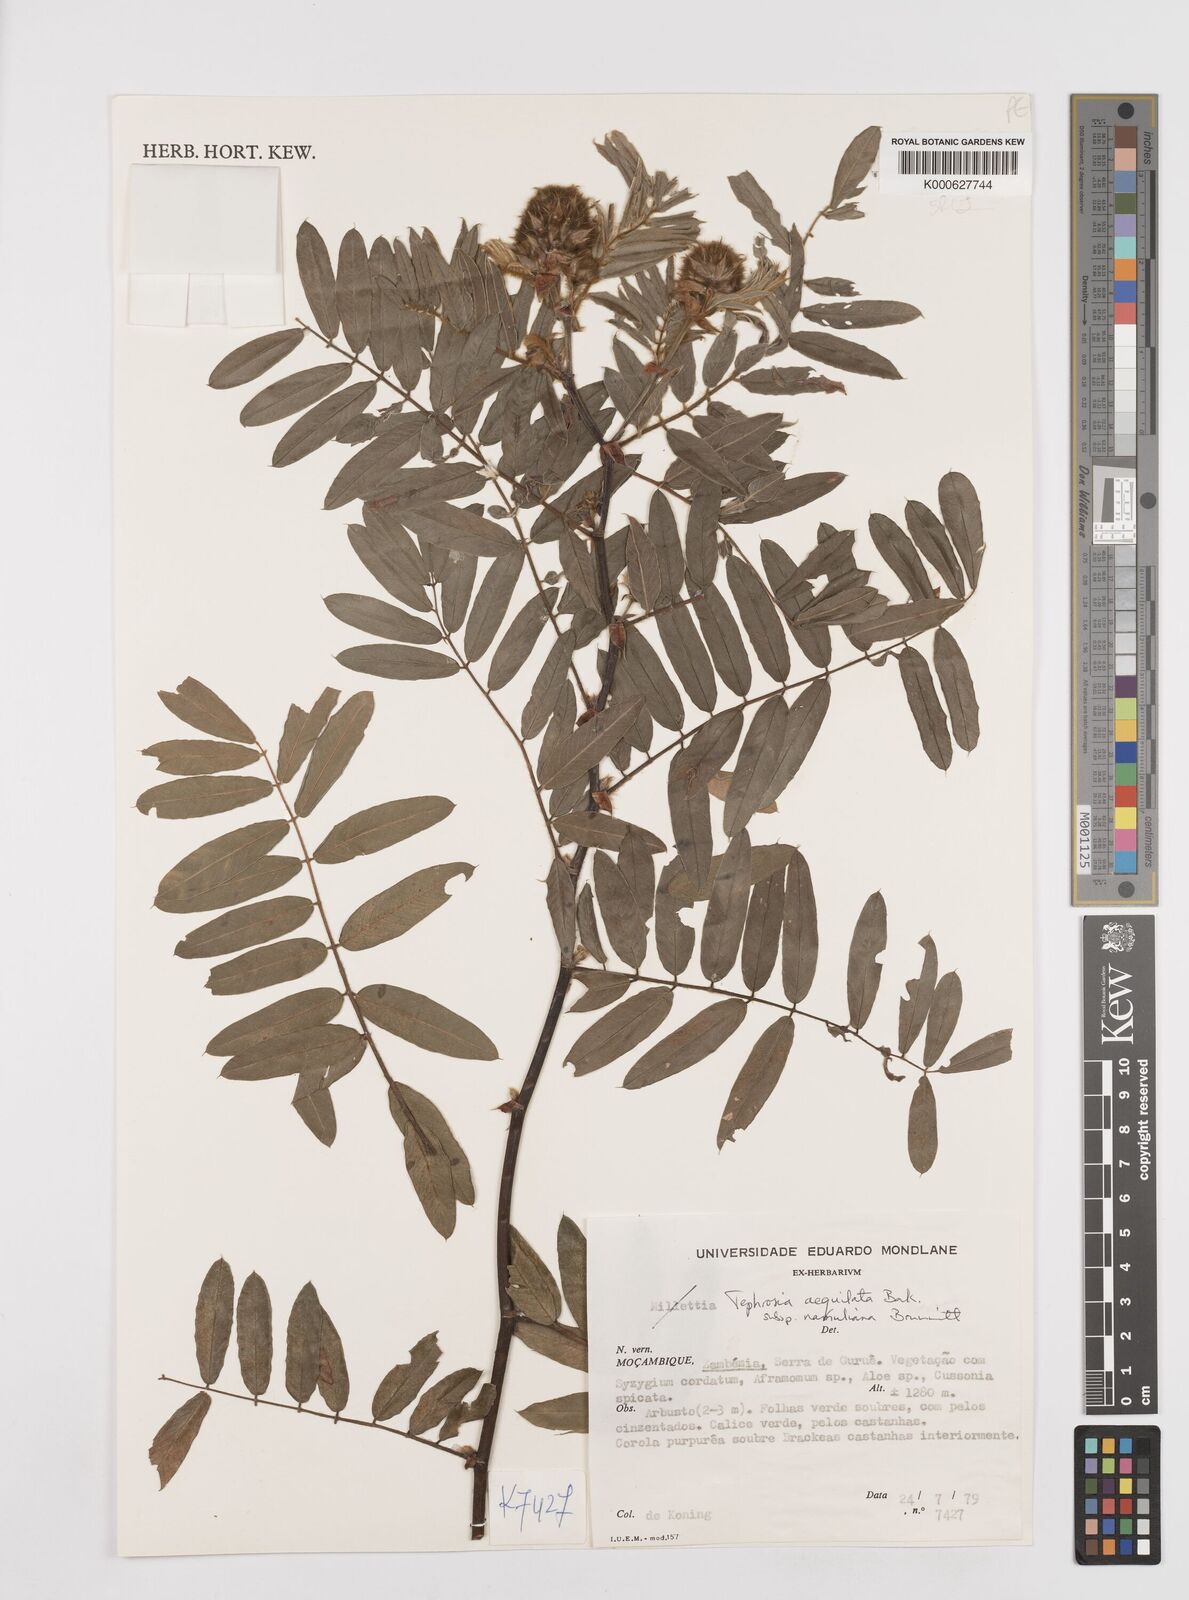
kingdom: Plantae
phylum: Tracheophyta
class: Magnoliopsida
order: Fabales
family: Fabaceae
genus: Tephrosia
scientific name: Tephrosia
